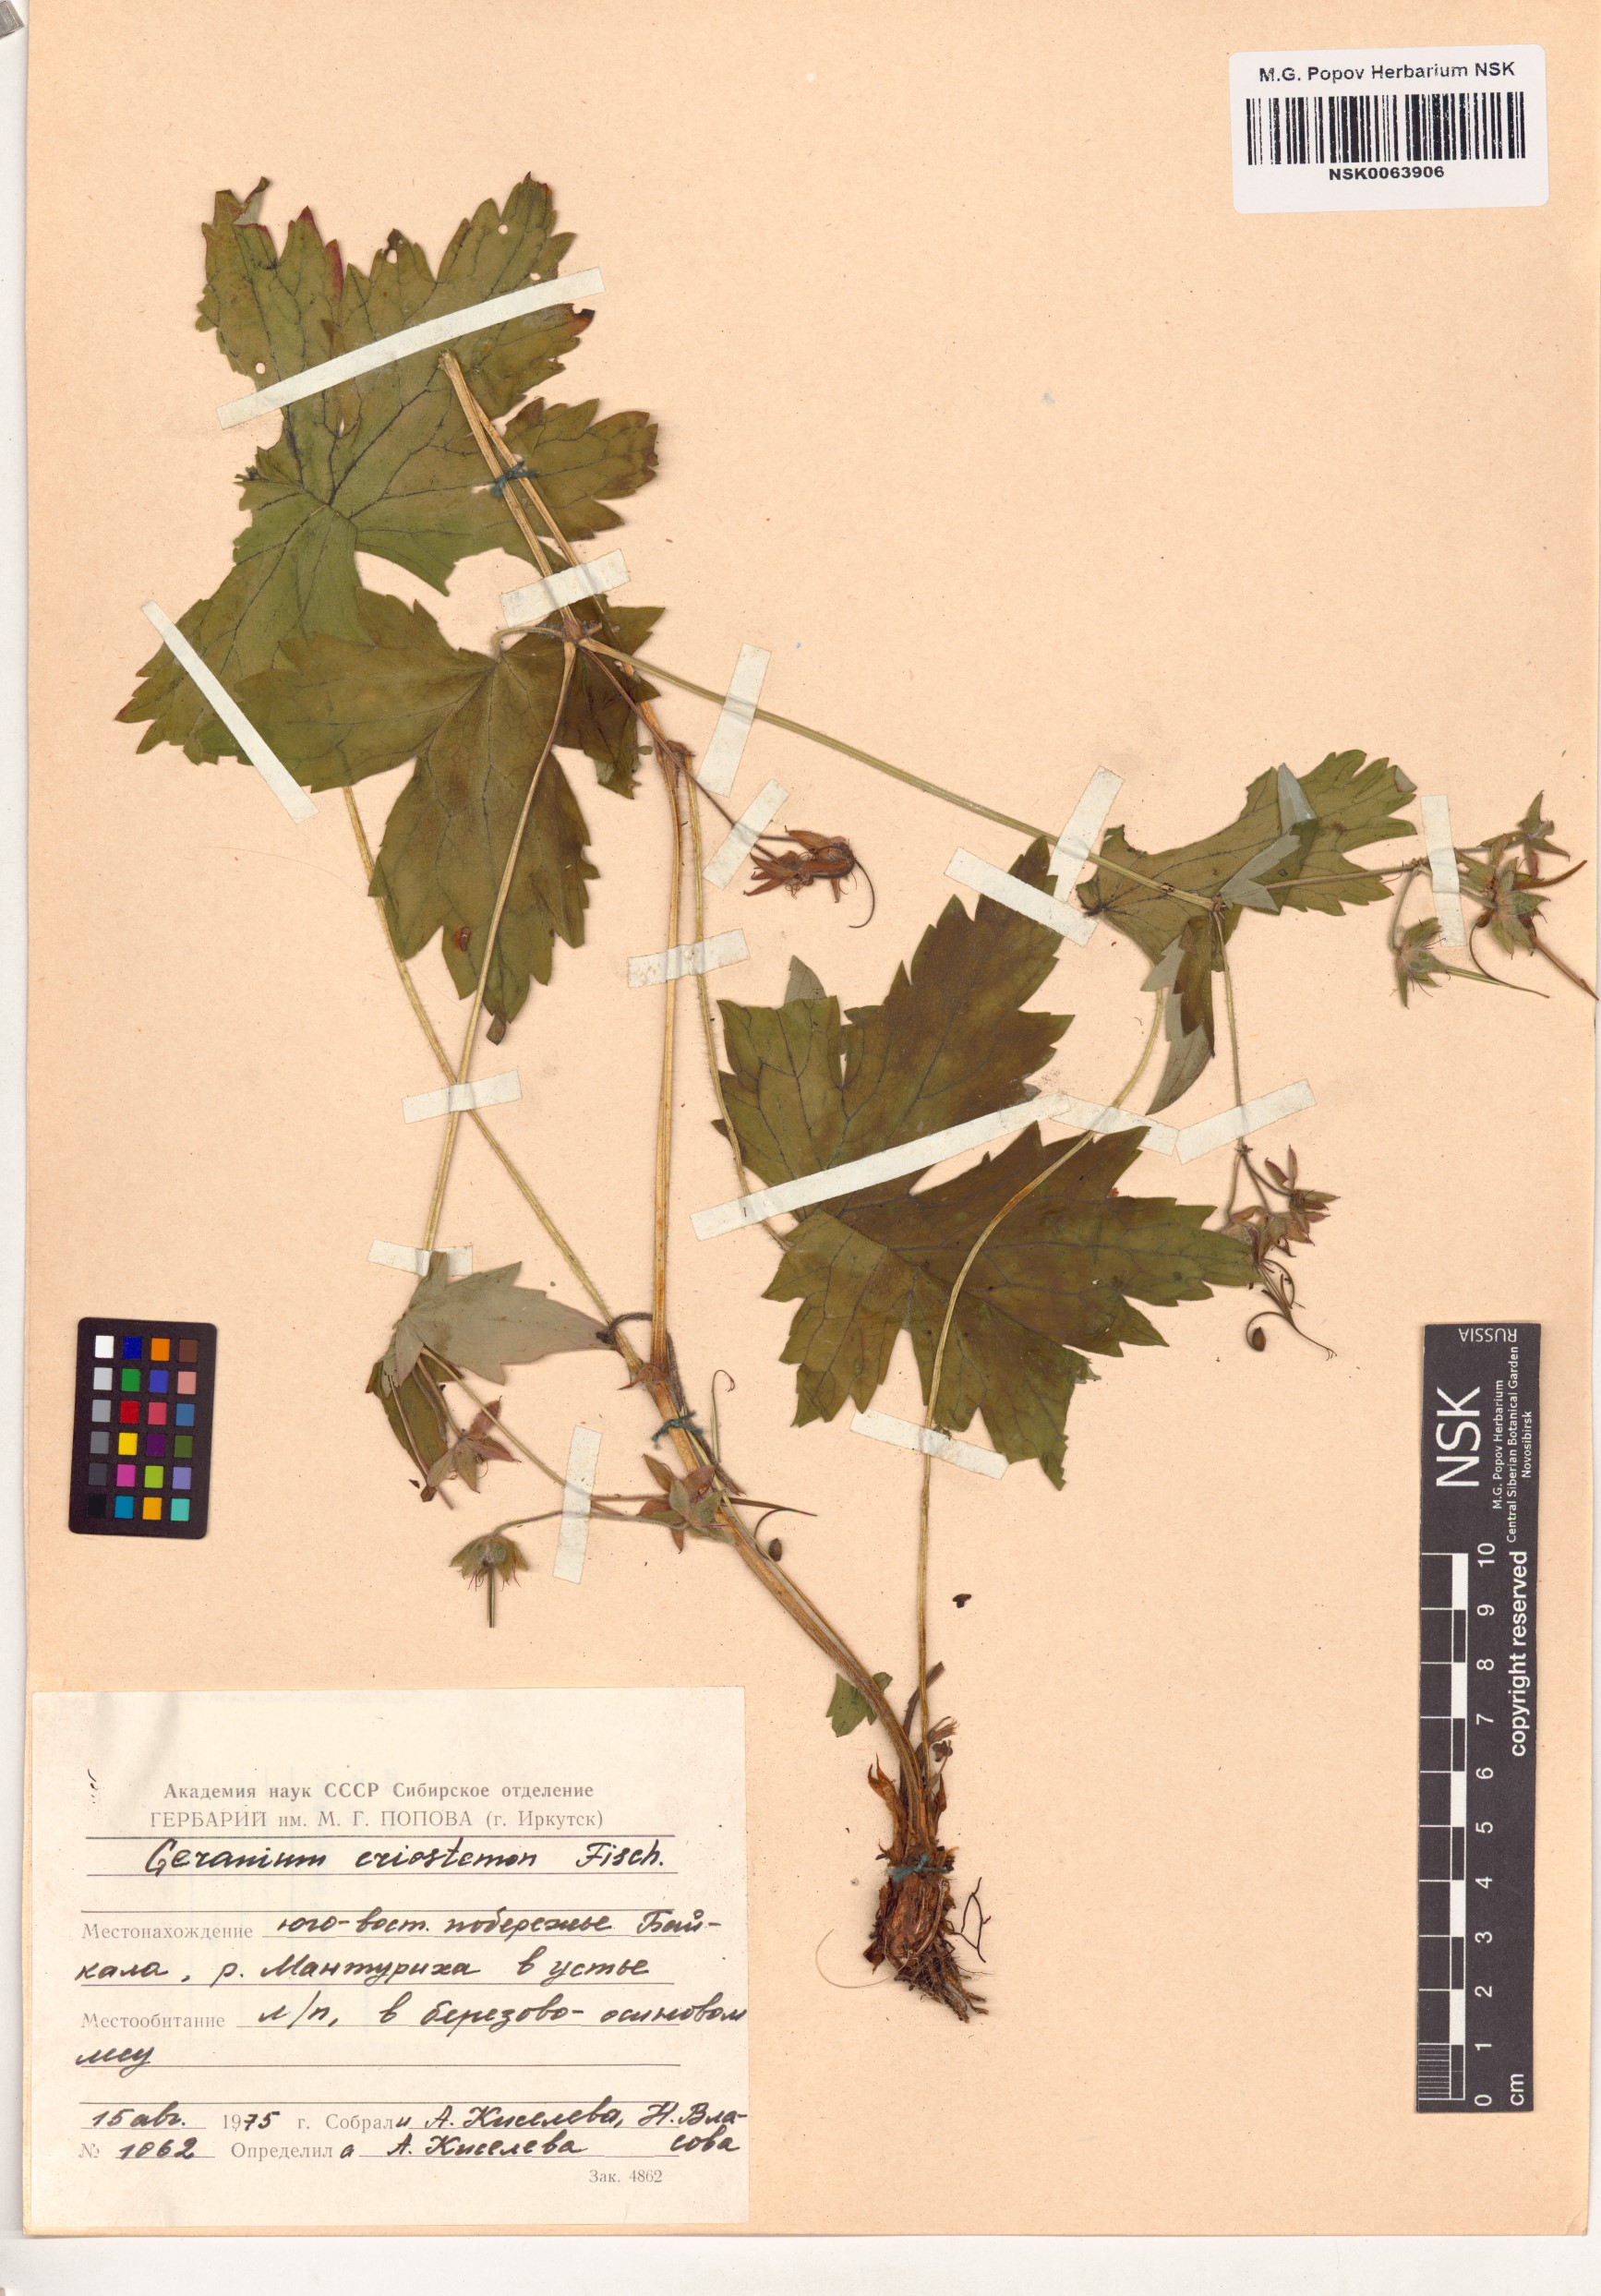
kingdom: Plantae
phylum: Tracheophyta
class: Magnoliopsida
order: Geraniales
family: Geraniaceae
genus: Geranium
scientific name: Geranium platyanthum
